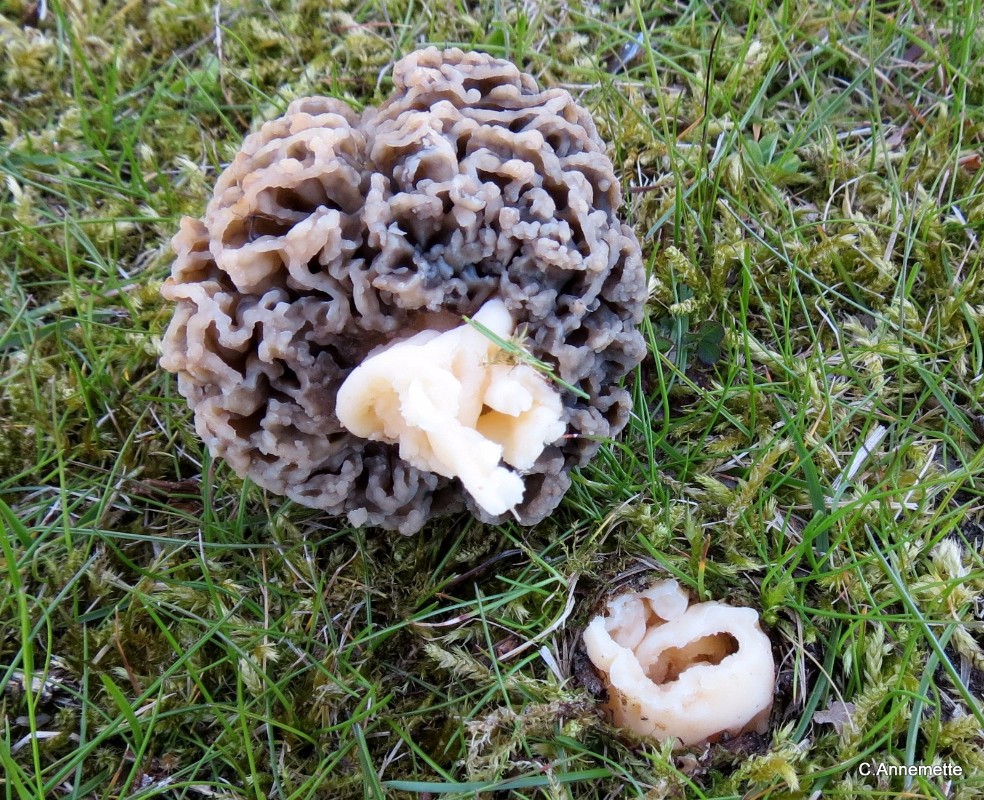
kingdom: Fungi
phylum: Ascomycota
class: Pezizomycetes
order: Pezizales
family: Morchellaceae
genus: Morchella
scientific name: Morchella esculenta
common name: almindelig morkel
